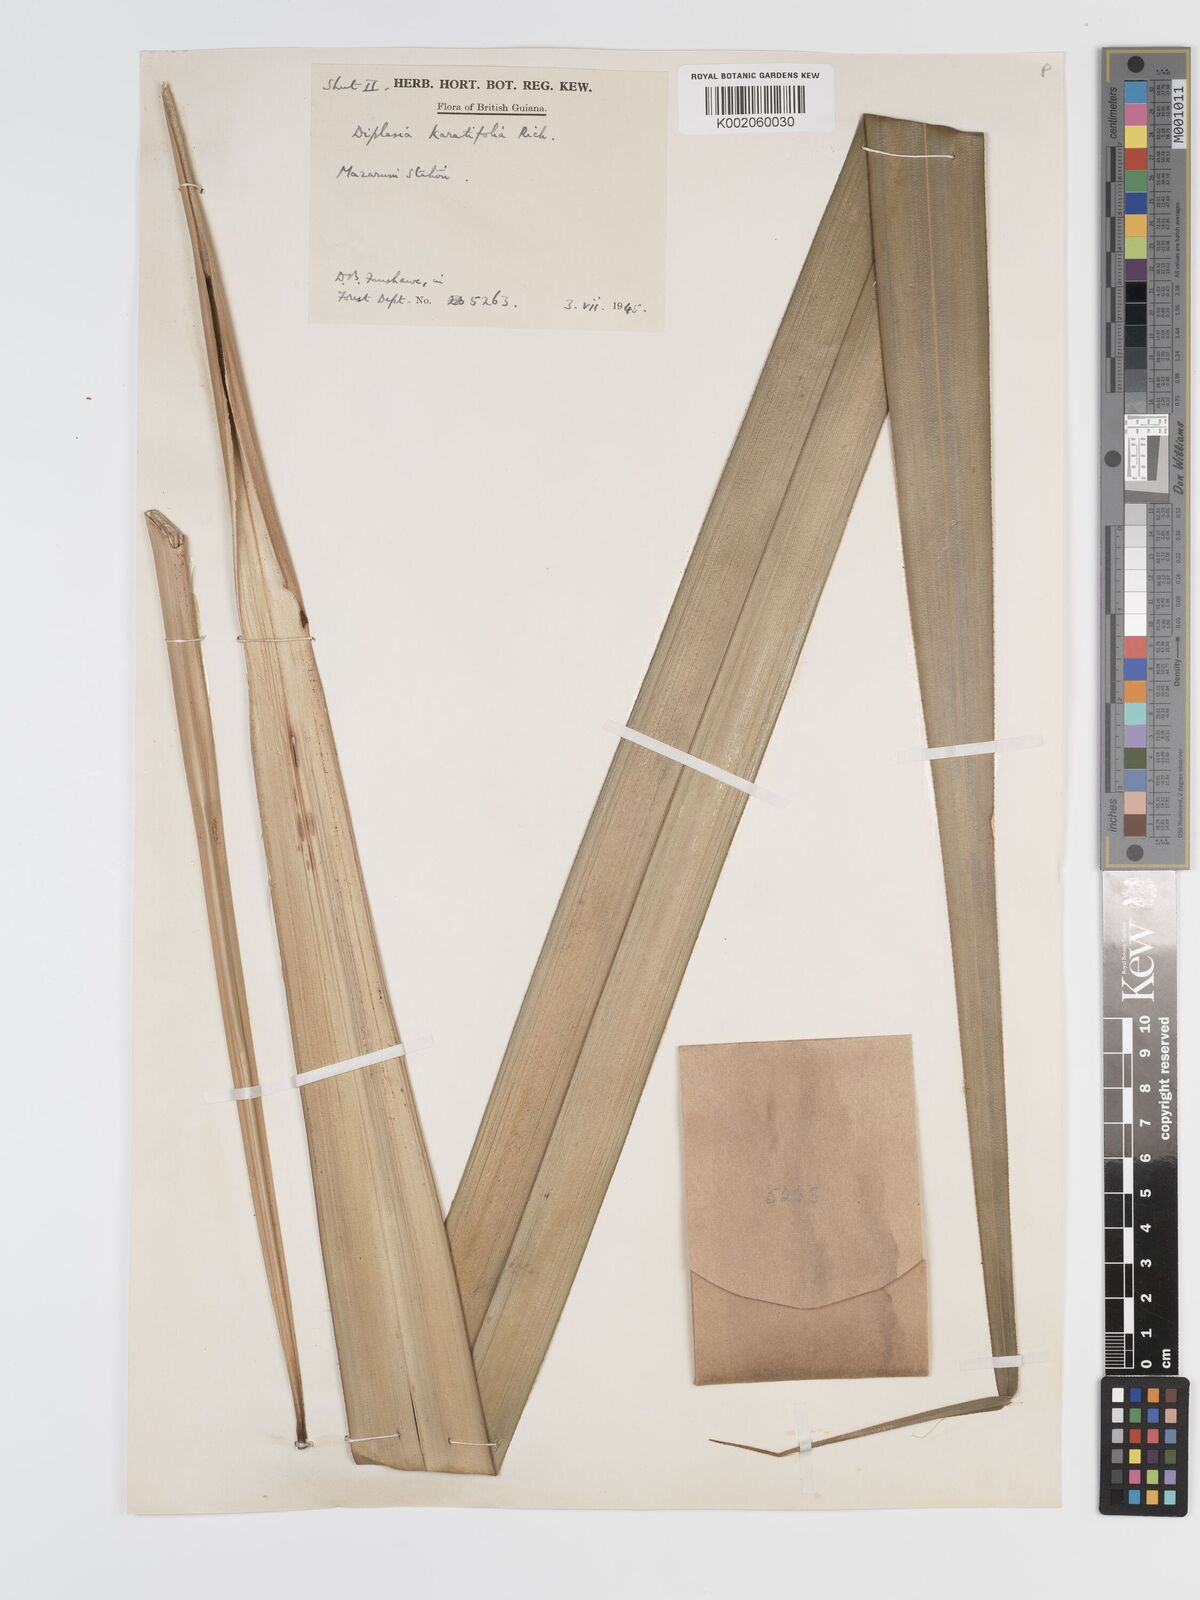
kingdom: Plantae
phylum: Tracheophyta
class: Liliopsida
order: Poales
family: Cyperaceae
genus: Diplasia
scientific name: Diplasia karatifolia
